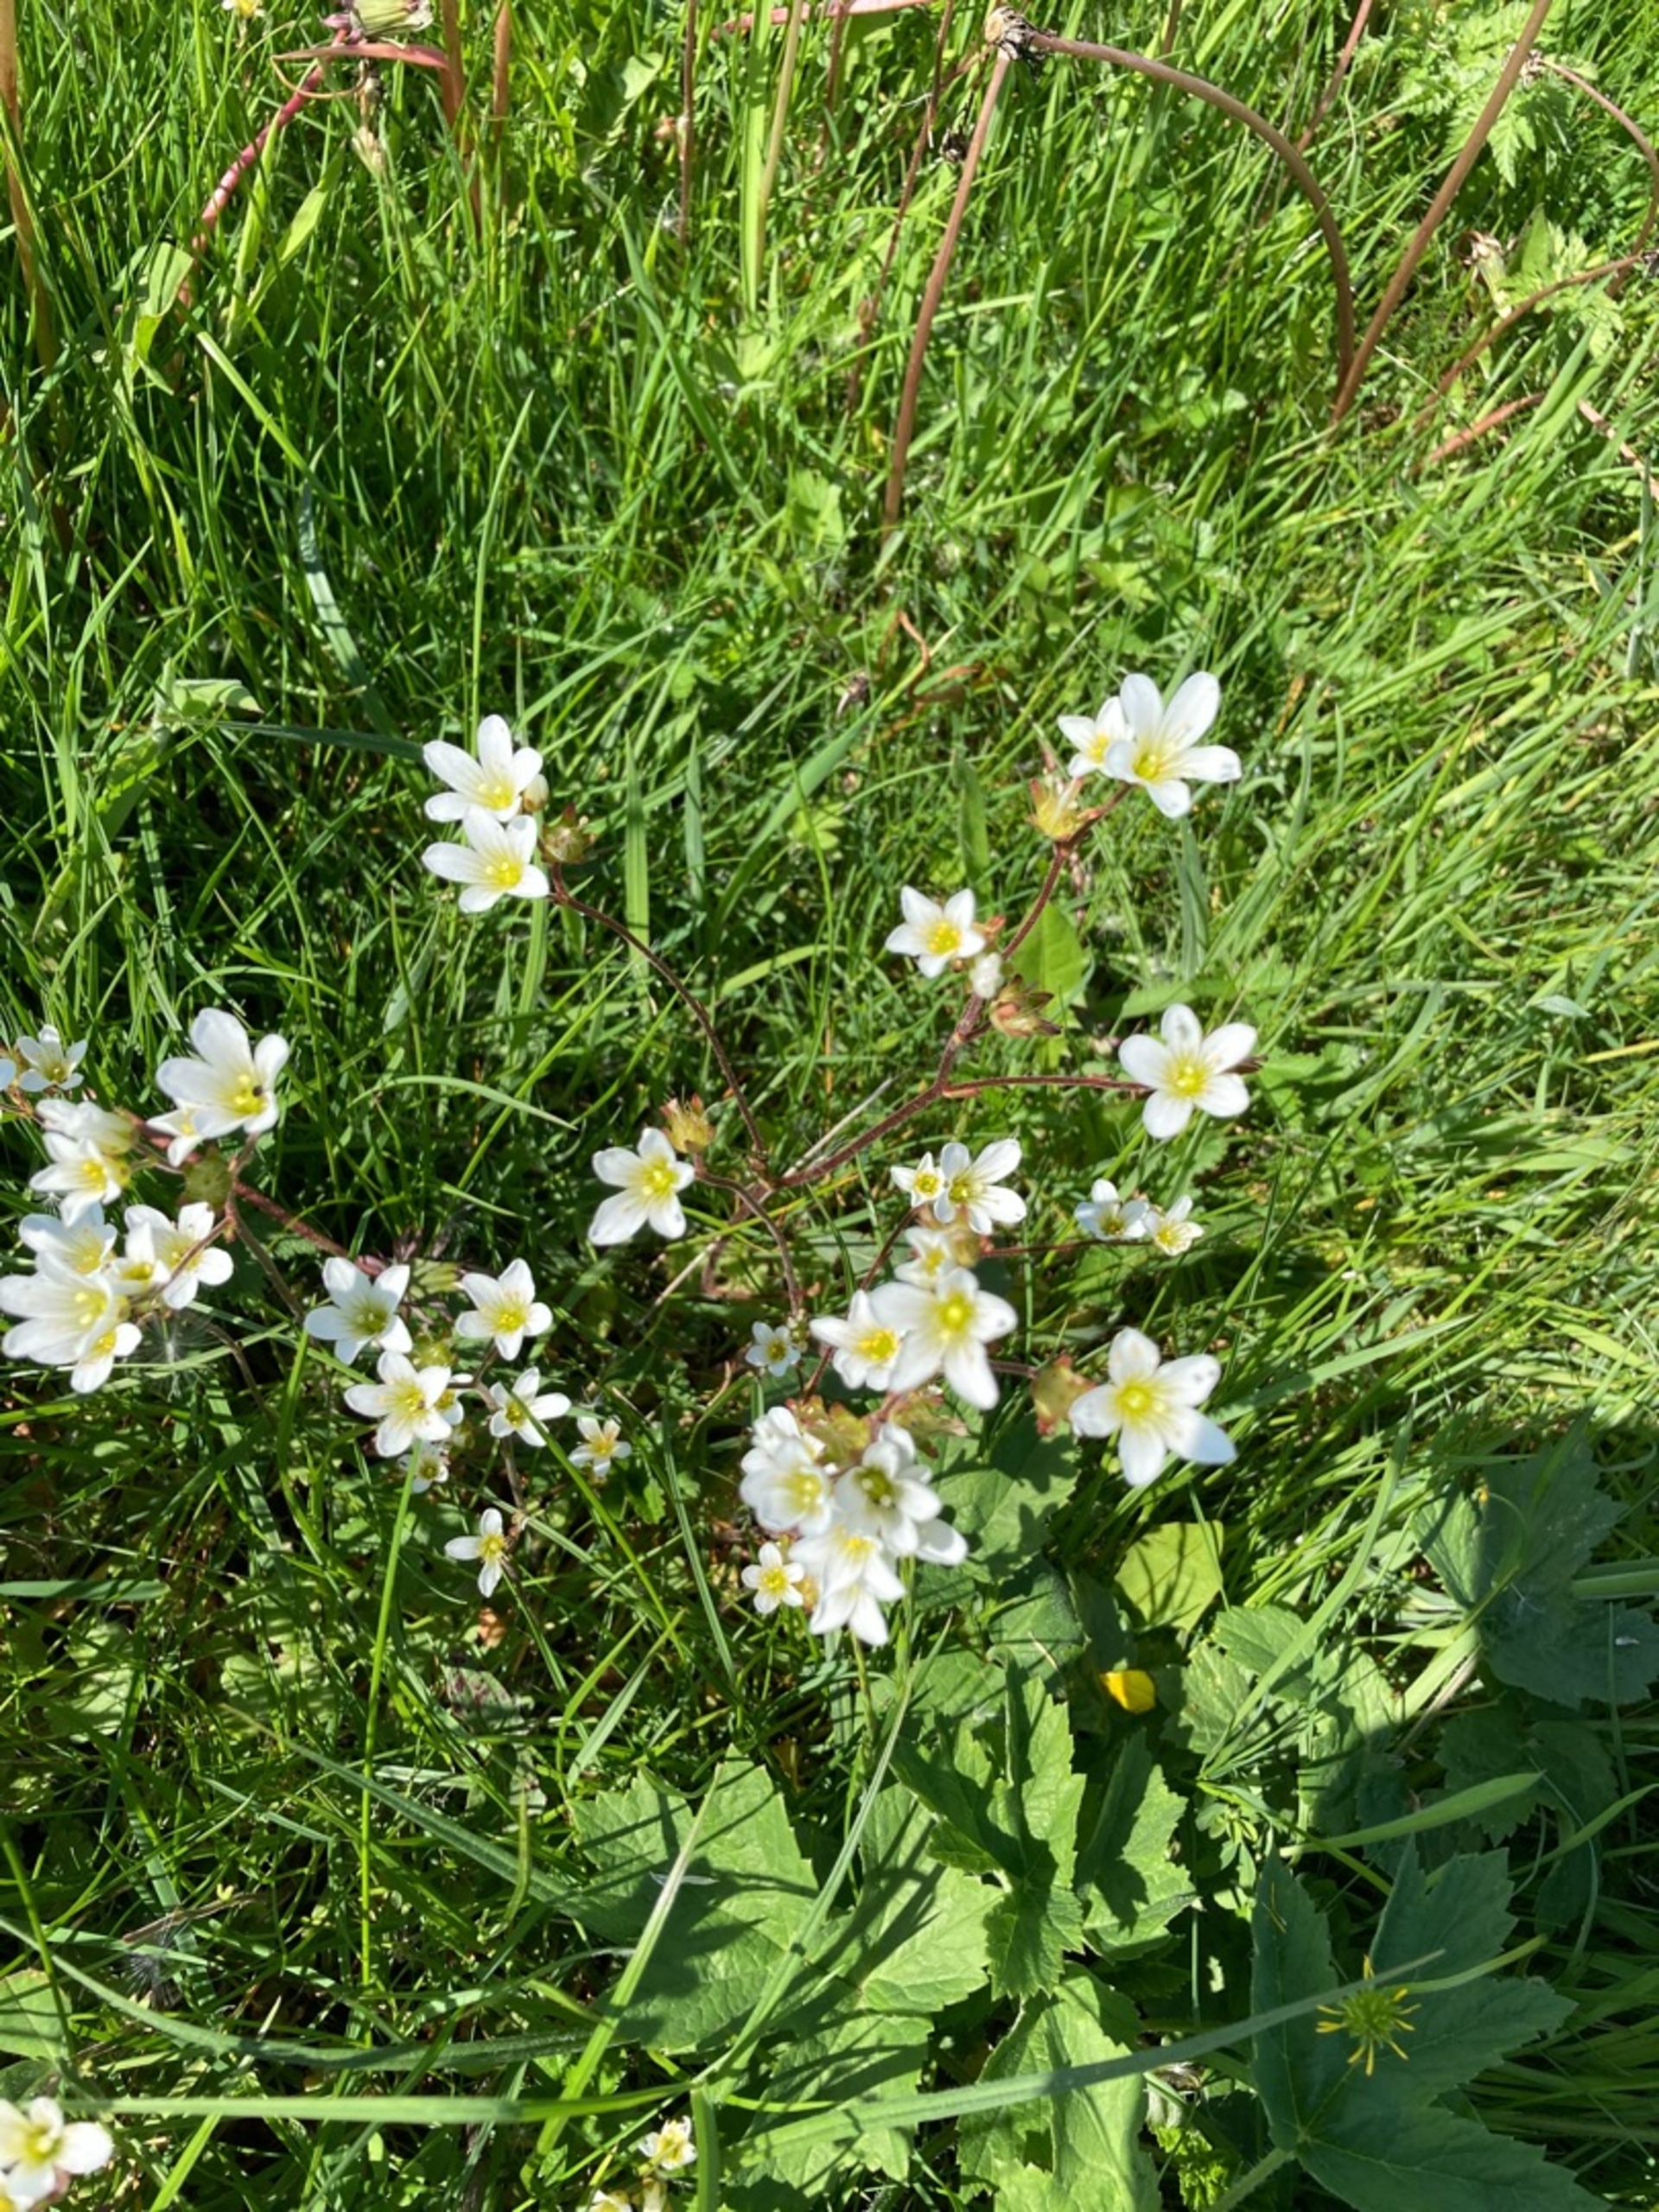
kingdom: Plantae
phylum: Tracheophyta
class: Magnoliopsida
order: Saxifragales
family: Saxifragaceae
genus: Saxifraga
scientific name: Saxifraga granulata
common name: Kornet stenbræk
